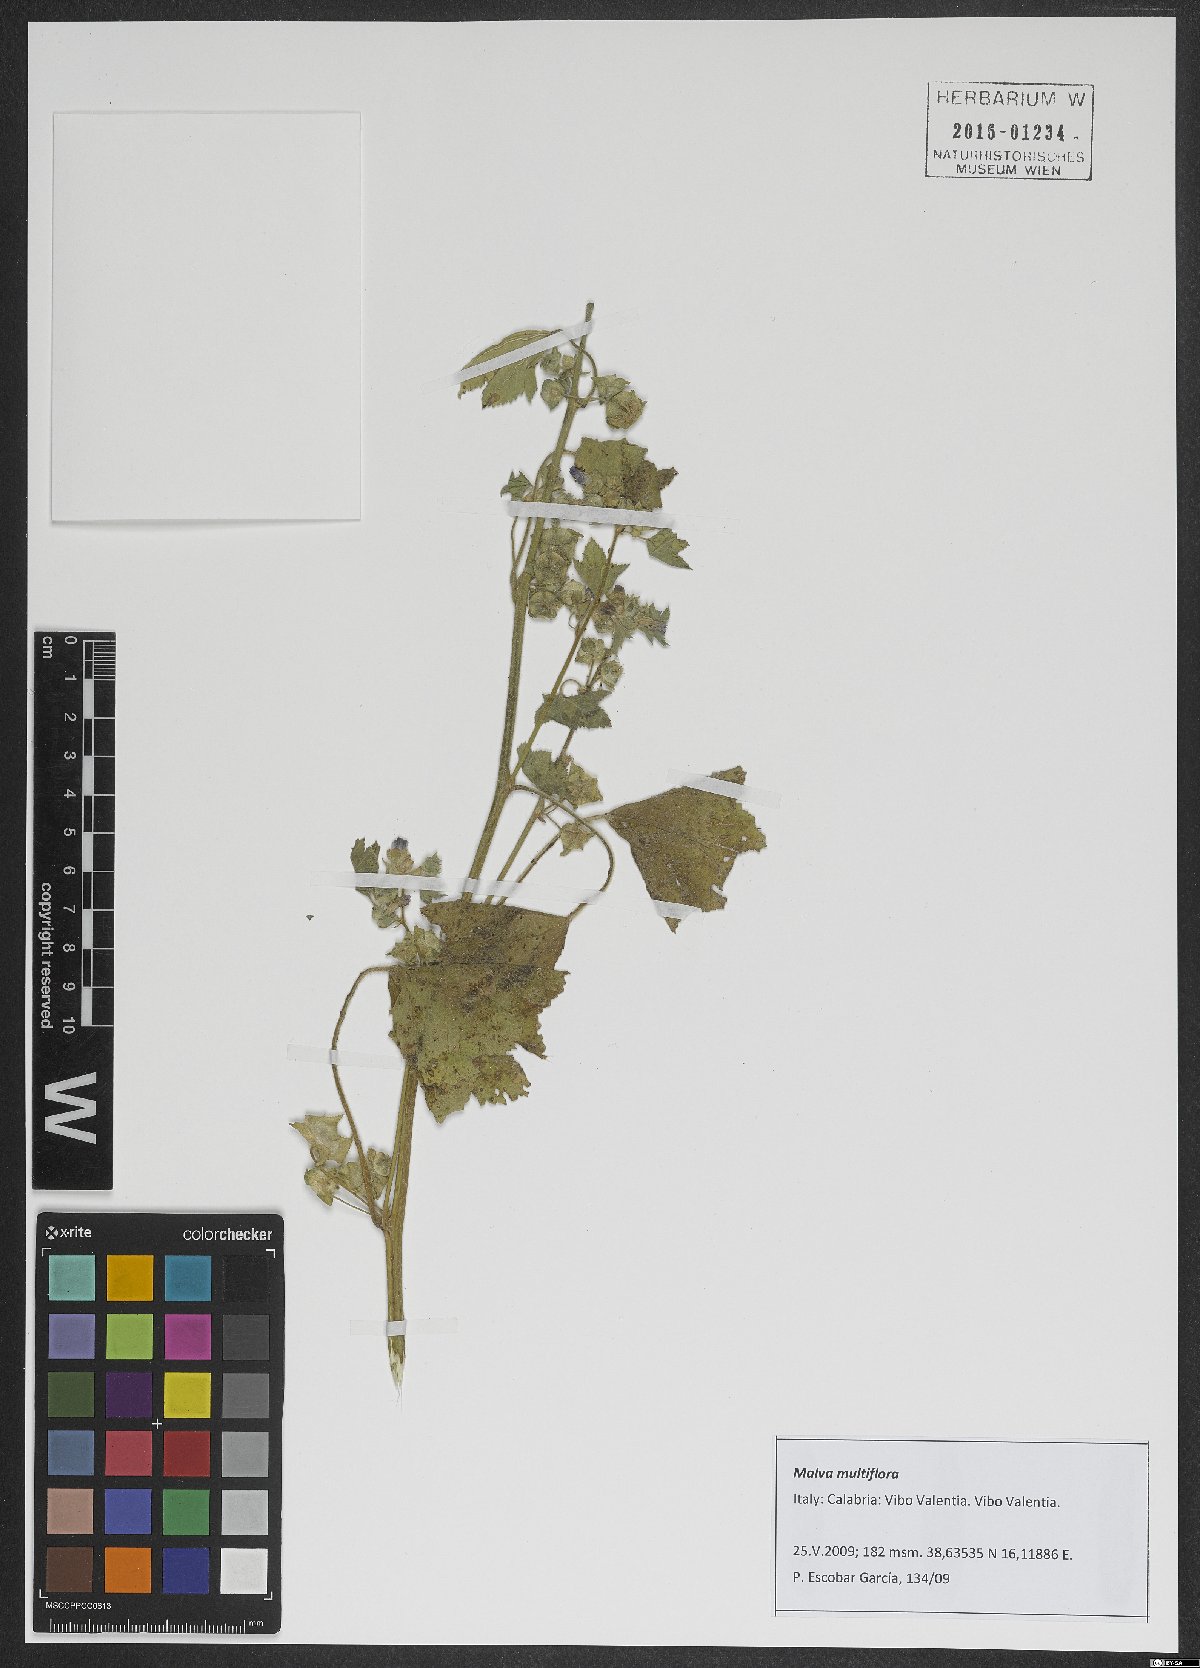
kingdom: Plantae
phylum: Tracheophyta
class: Magnoliopsida
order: Malvales
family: Malvaceae
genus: Malva
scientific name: Malva multiflora
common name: Cheeseweed
